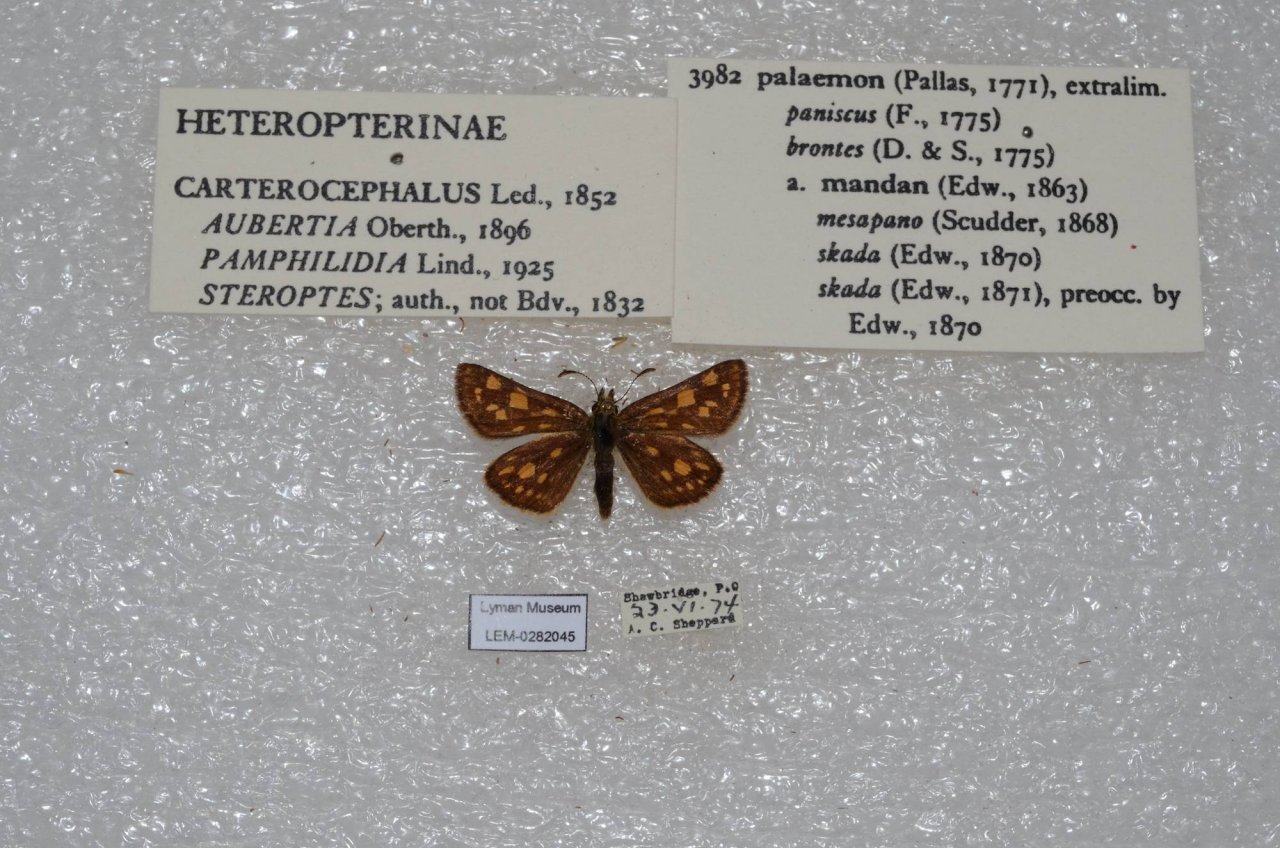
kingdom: Animalia
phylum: Arthropoda
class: Insecta
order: Lepidoptera
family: Hesperiidae
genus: Carterocephalus
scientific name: Carterocephalus palaemon
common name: Chequered Skipper
